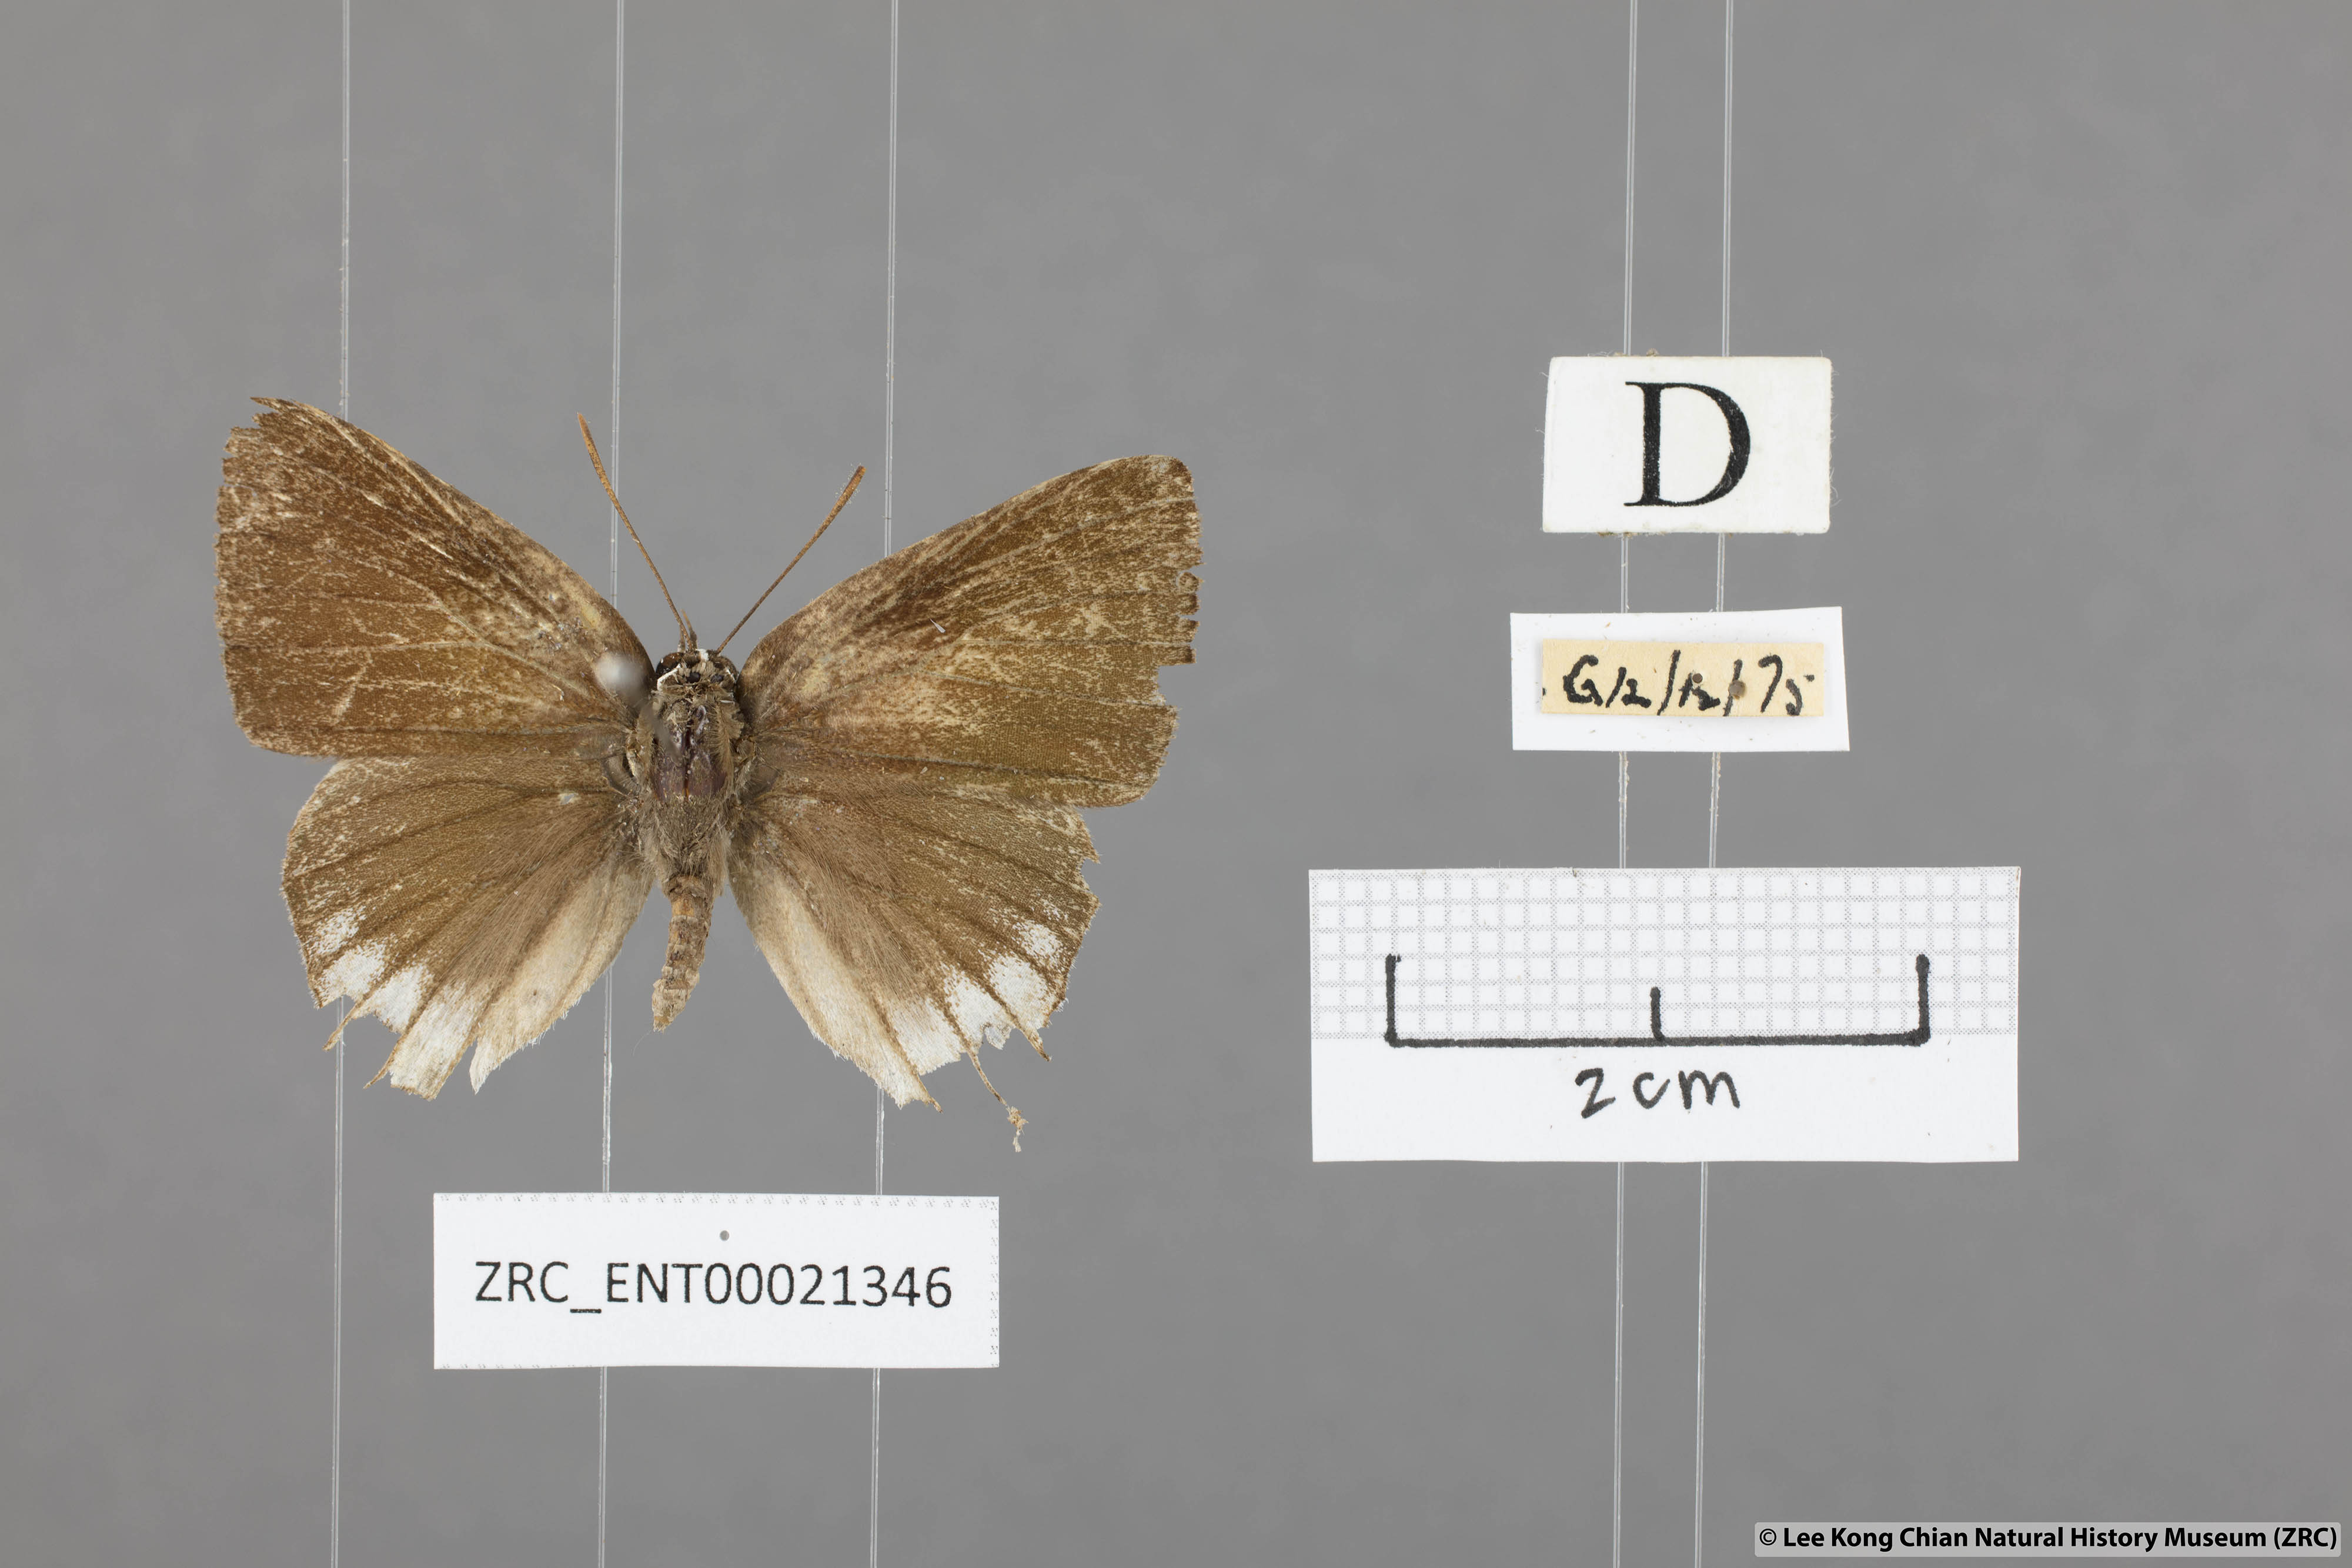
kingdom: Animalia
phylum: Arthropoda
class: Insecta
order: Lepidoptera
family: Lycaenidae
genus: Deudorix
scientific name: Deudorix
